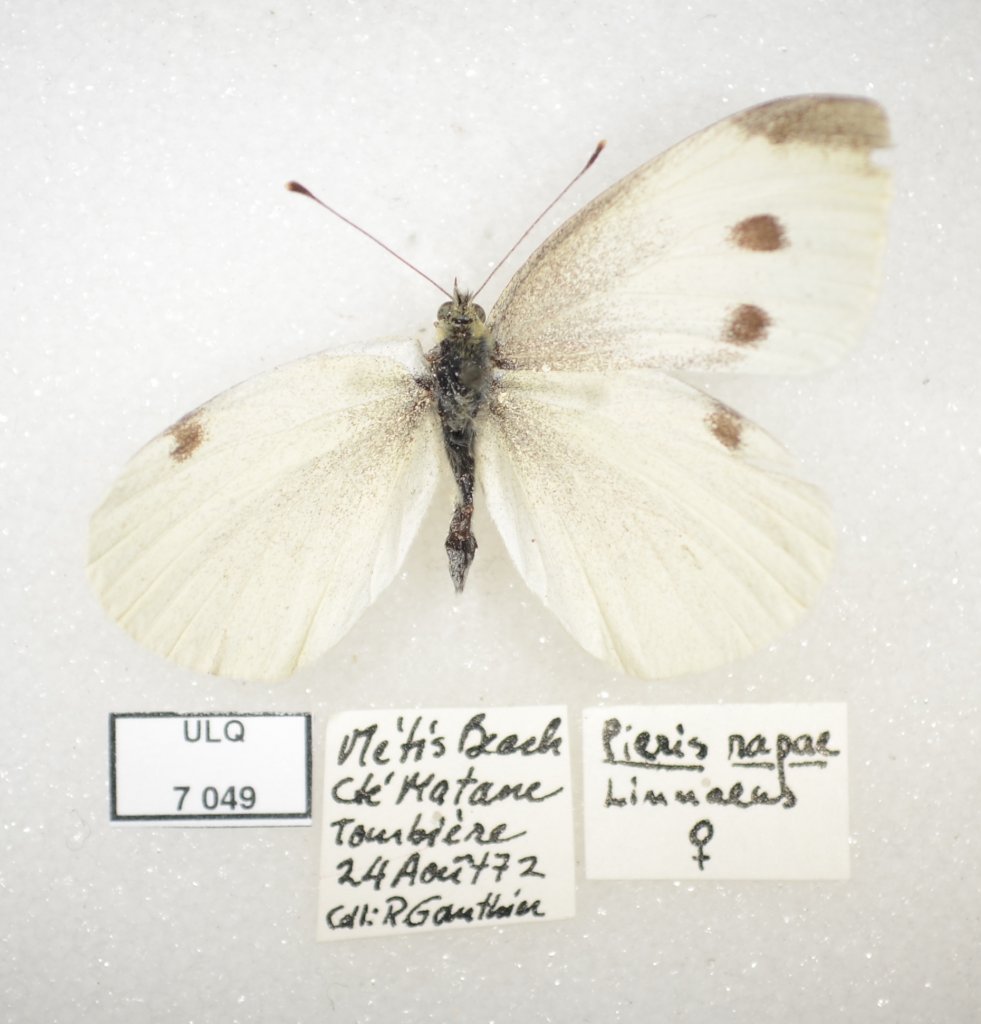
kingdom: Animalia
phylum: Arthropoda
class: Insecta
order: Lepidoptera
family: Pieridae
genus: Pieris
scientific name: Pieris rapae
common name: Cabbage White
